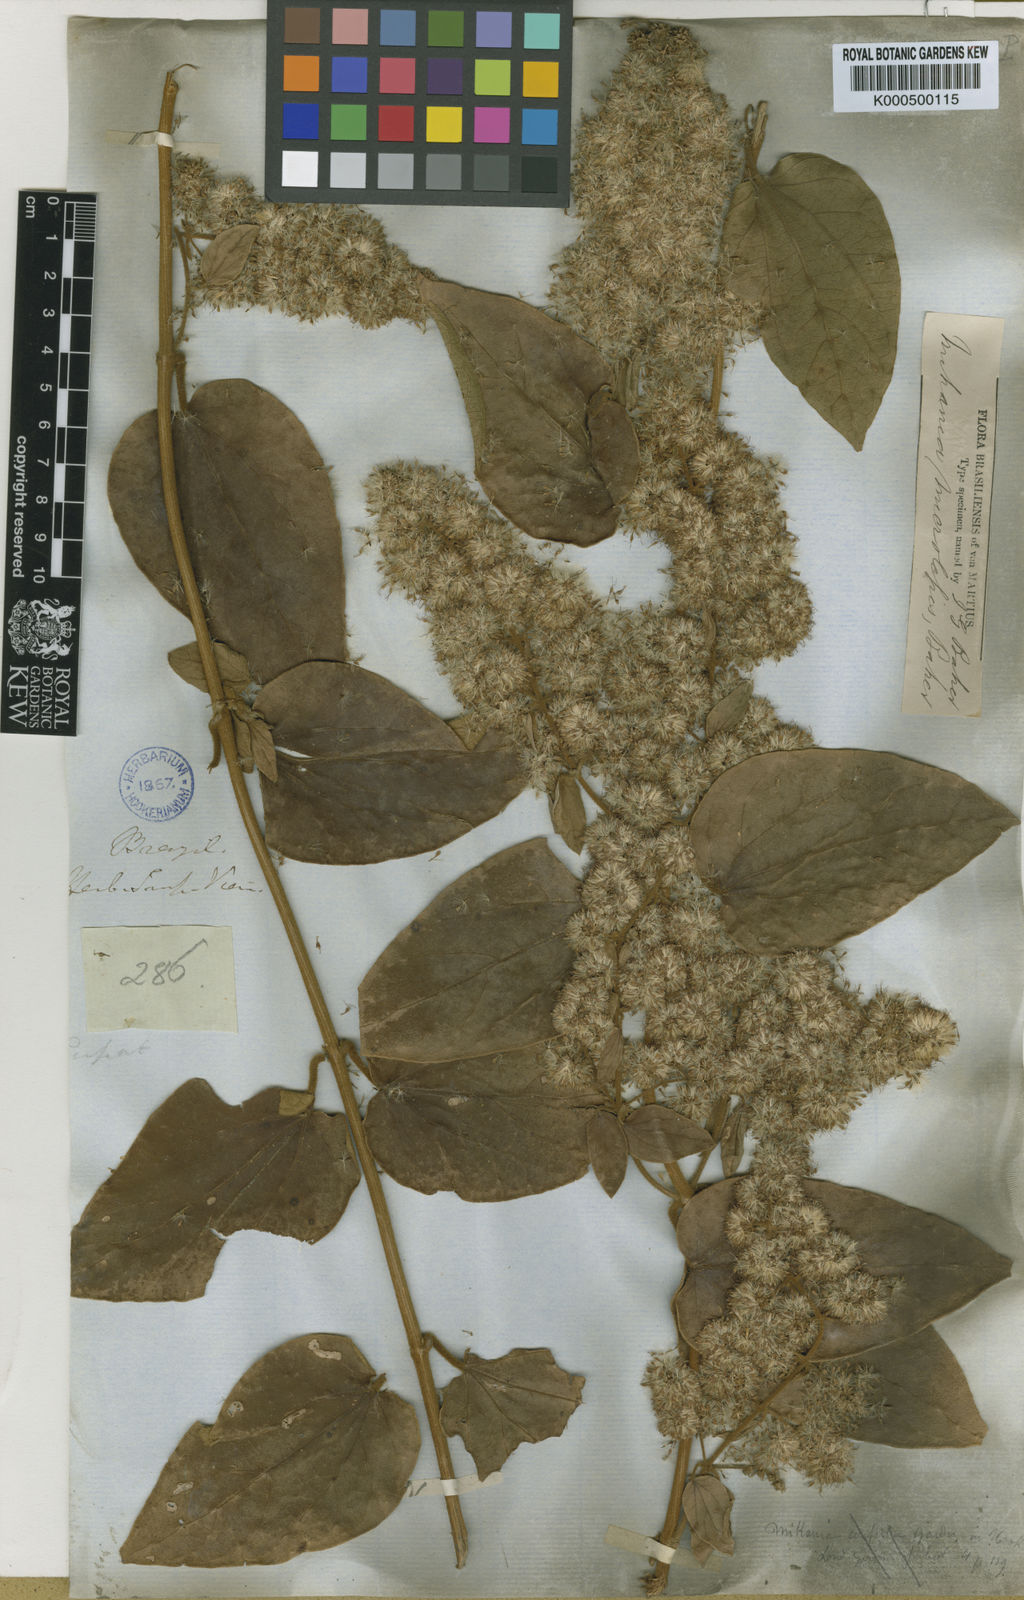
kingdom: Plantae
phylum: Tracheophyta
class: Magnoliopsida
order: Asterales
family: Asteraceae
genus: Mikania
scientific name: Mikania microlepis
